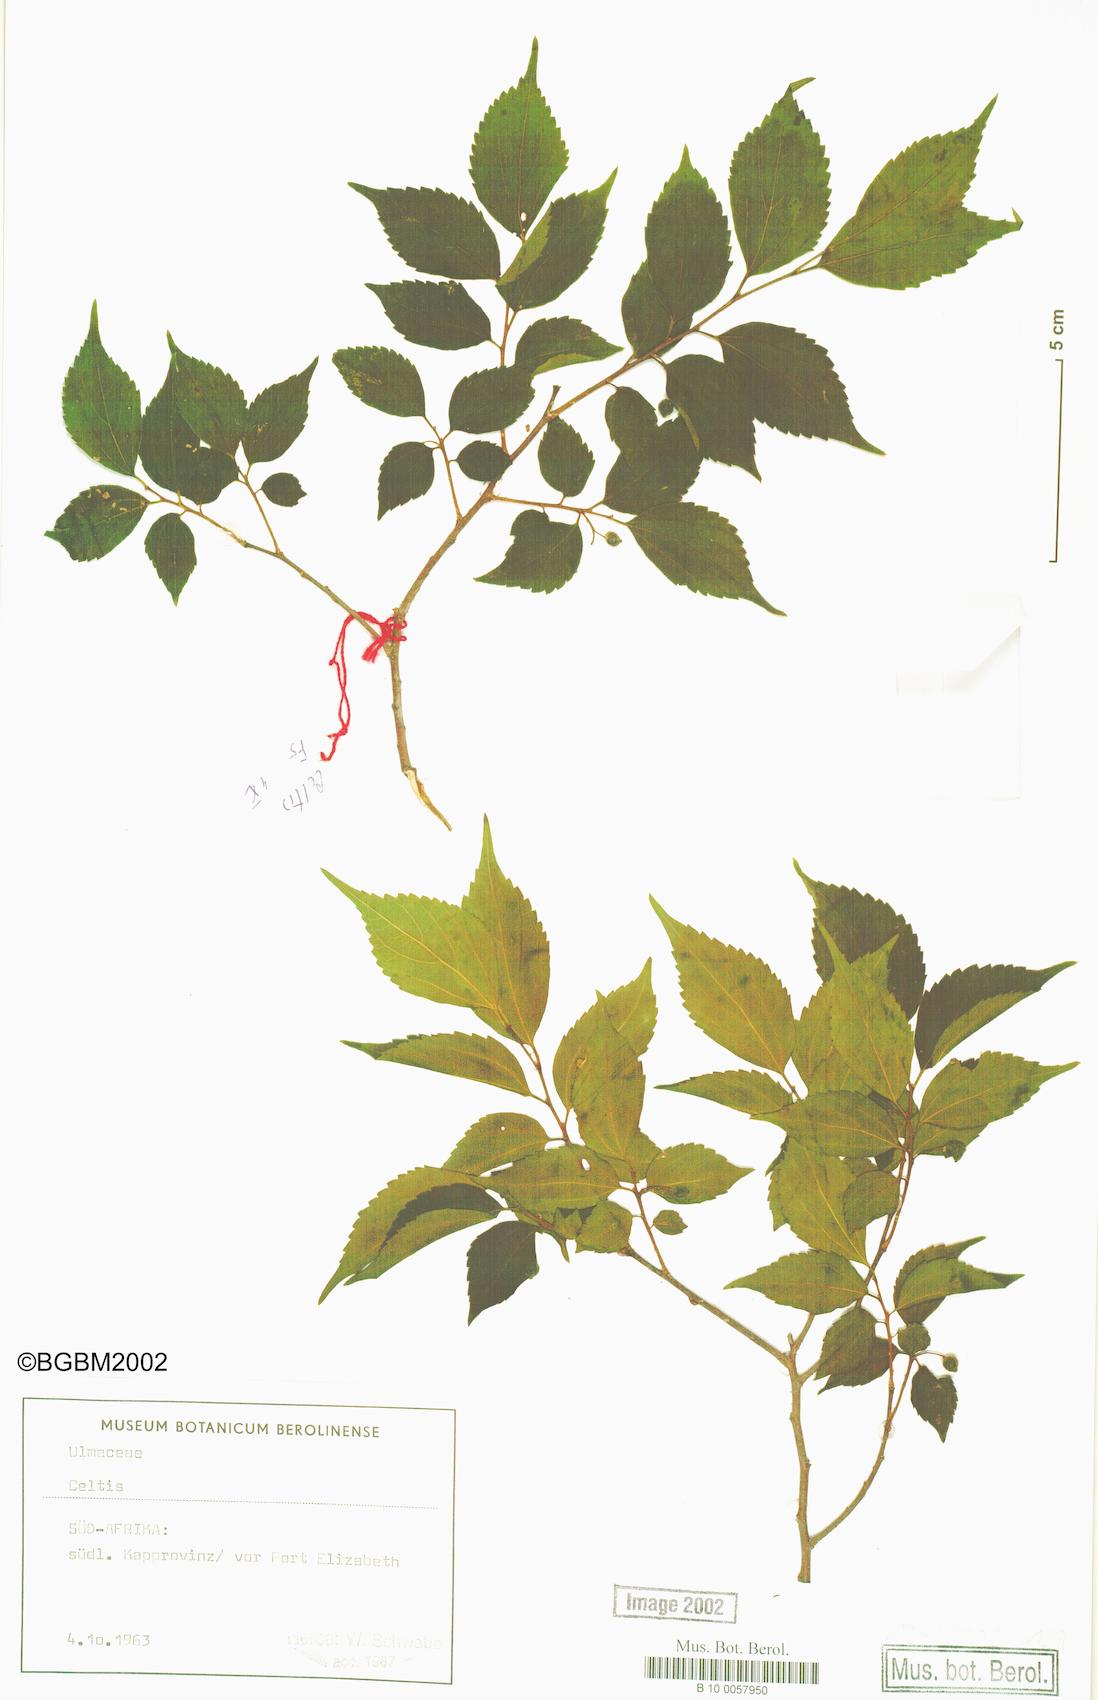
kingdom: Plantae
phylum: Tracheophyta
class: Magnoliopsida
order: Rosales
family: Cannabaceae
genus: Celtis
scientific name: Celtis
